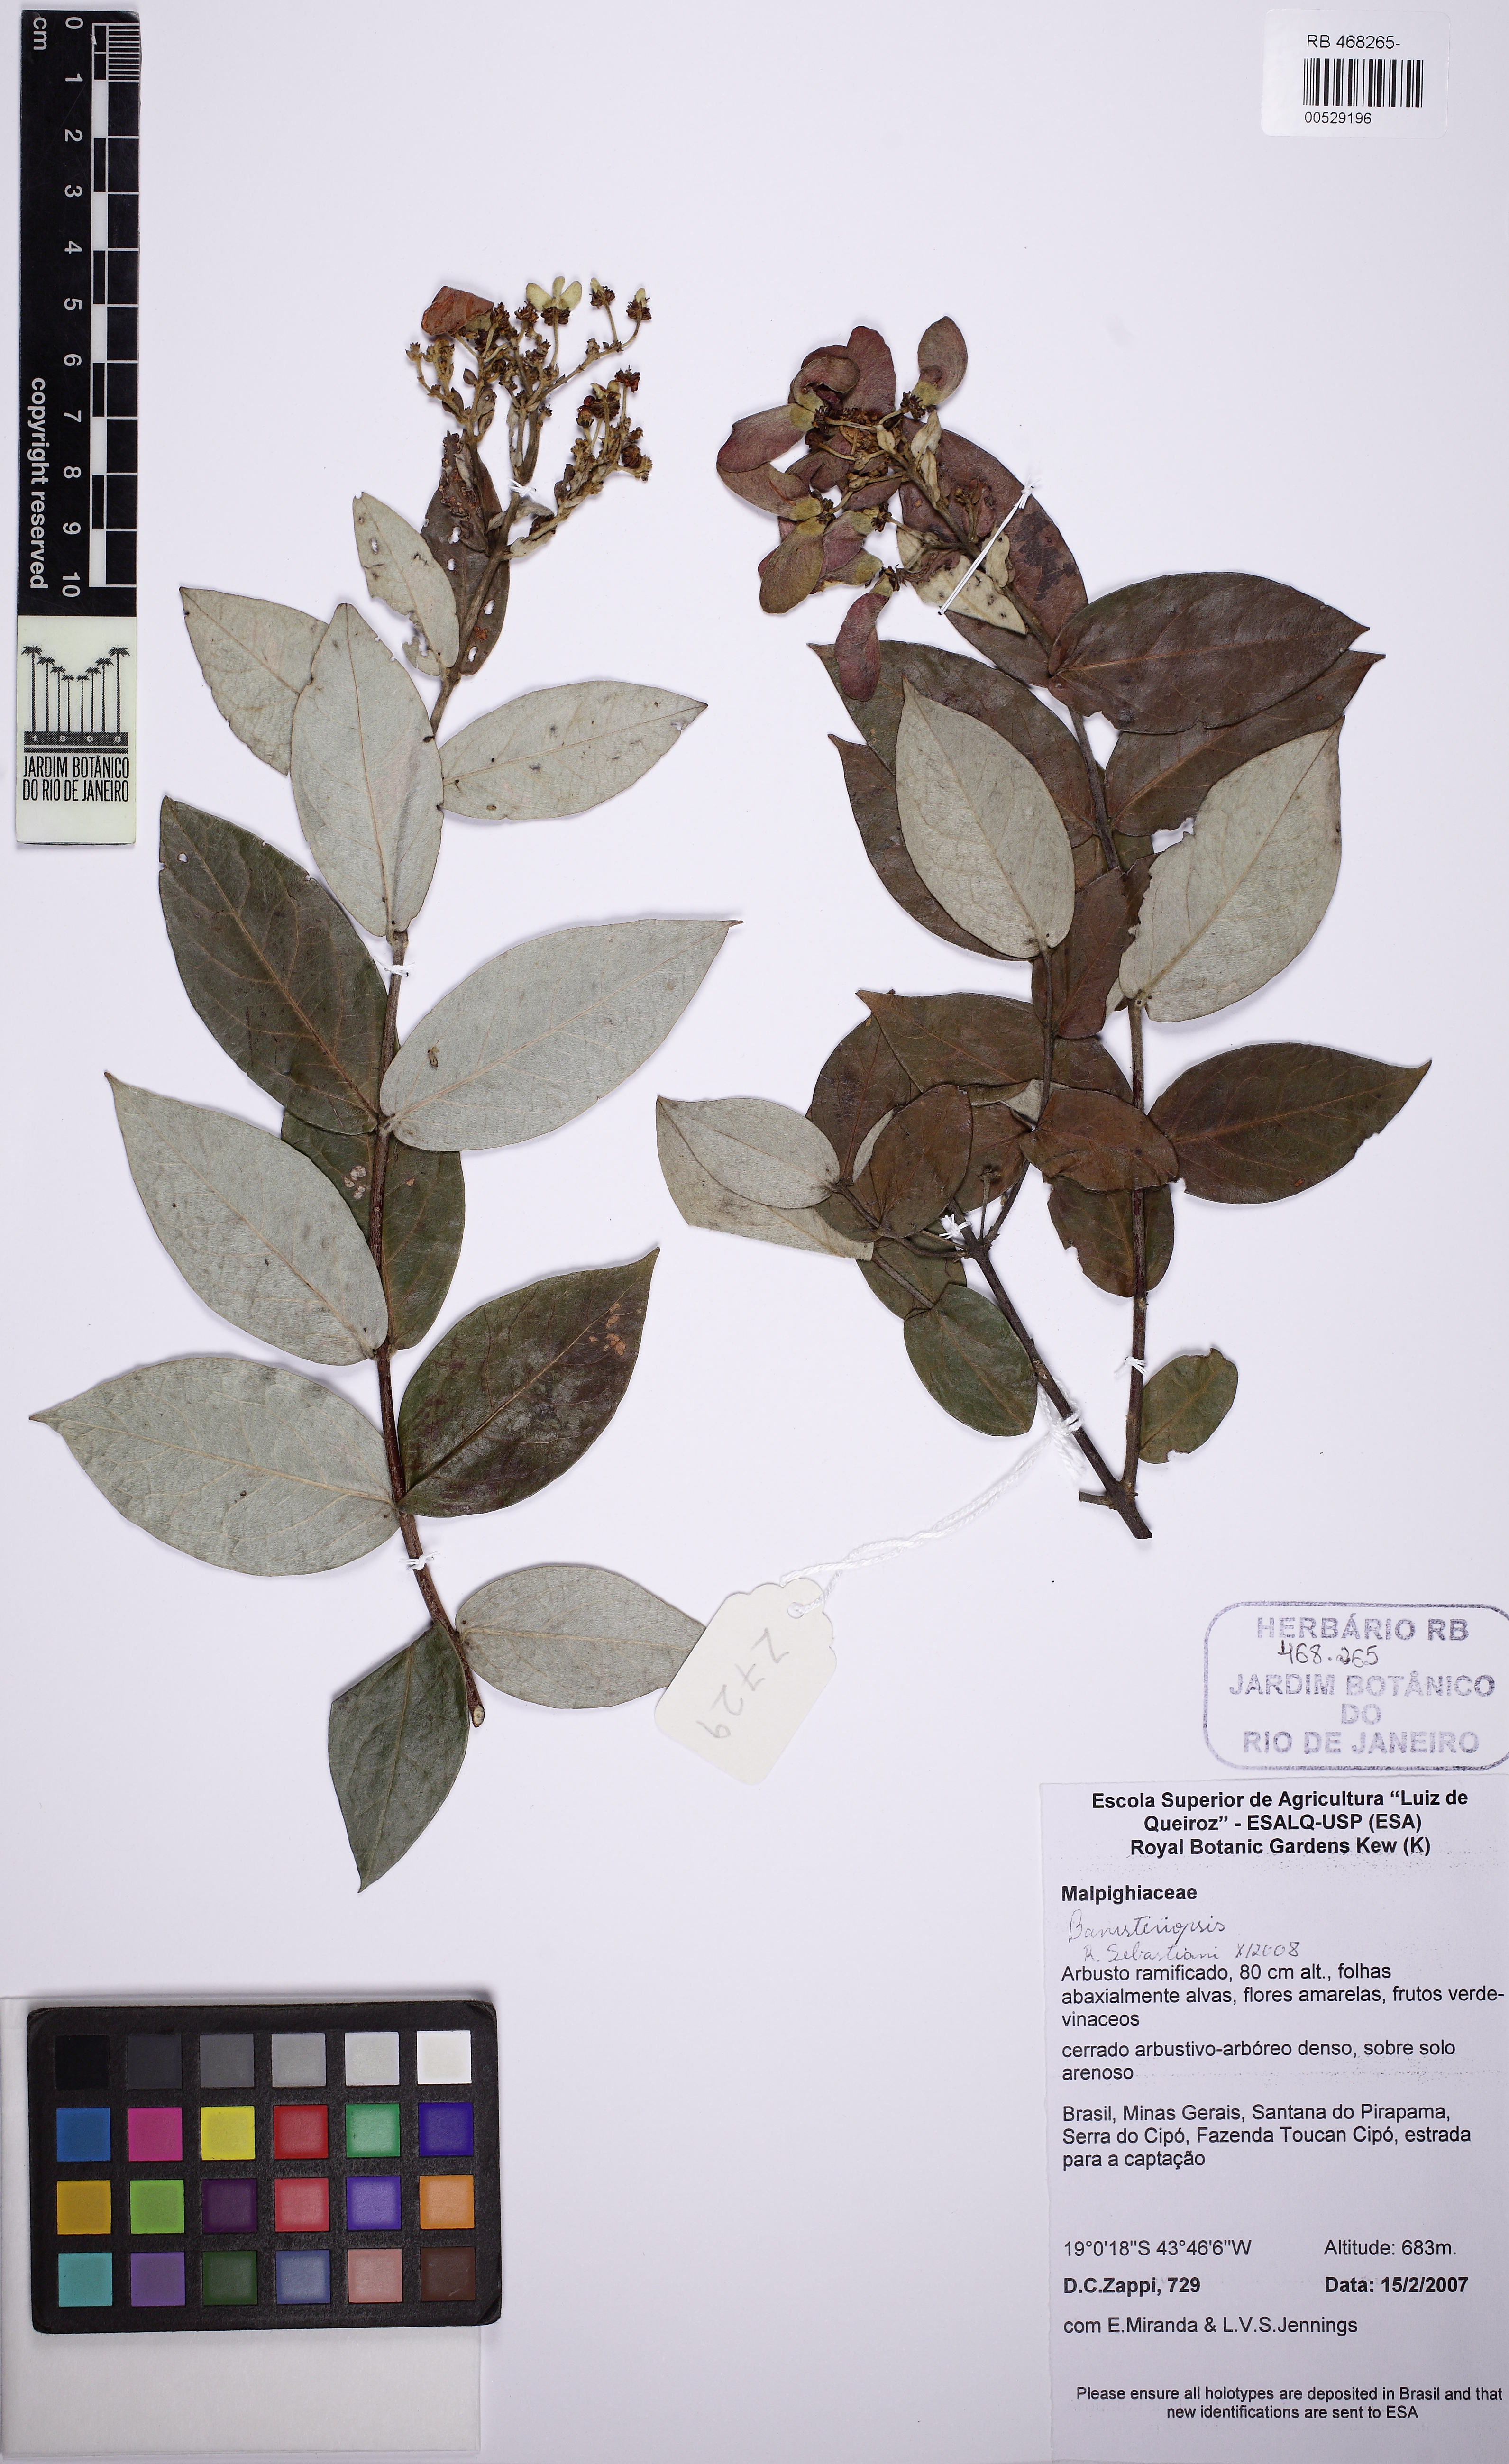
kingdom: Plantae
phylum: Tracheophyta
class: Magnoliopsida
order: Malpighiales
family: Malpighiaceae
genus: Banisteriopsis
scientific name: Banisteriopsis latifolia
